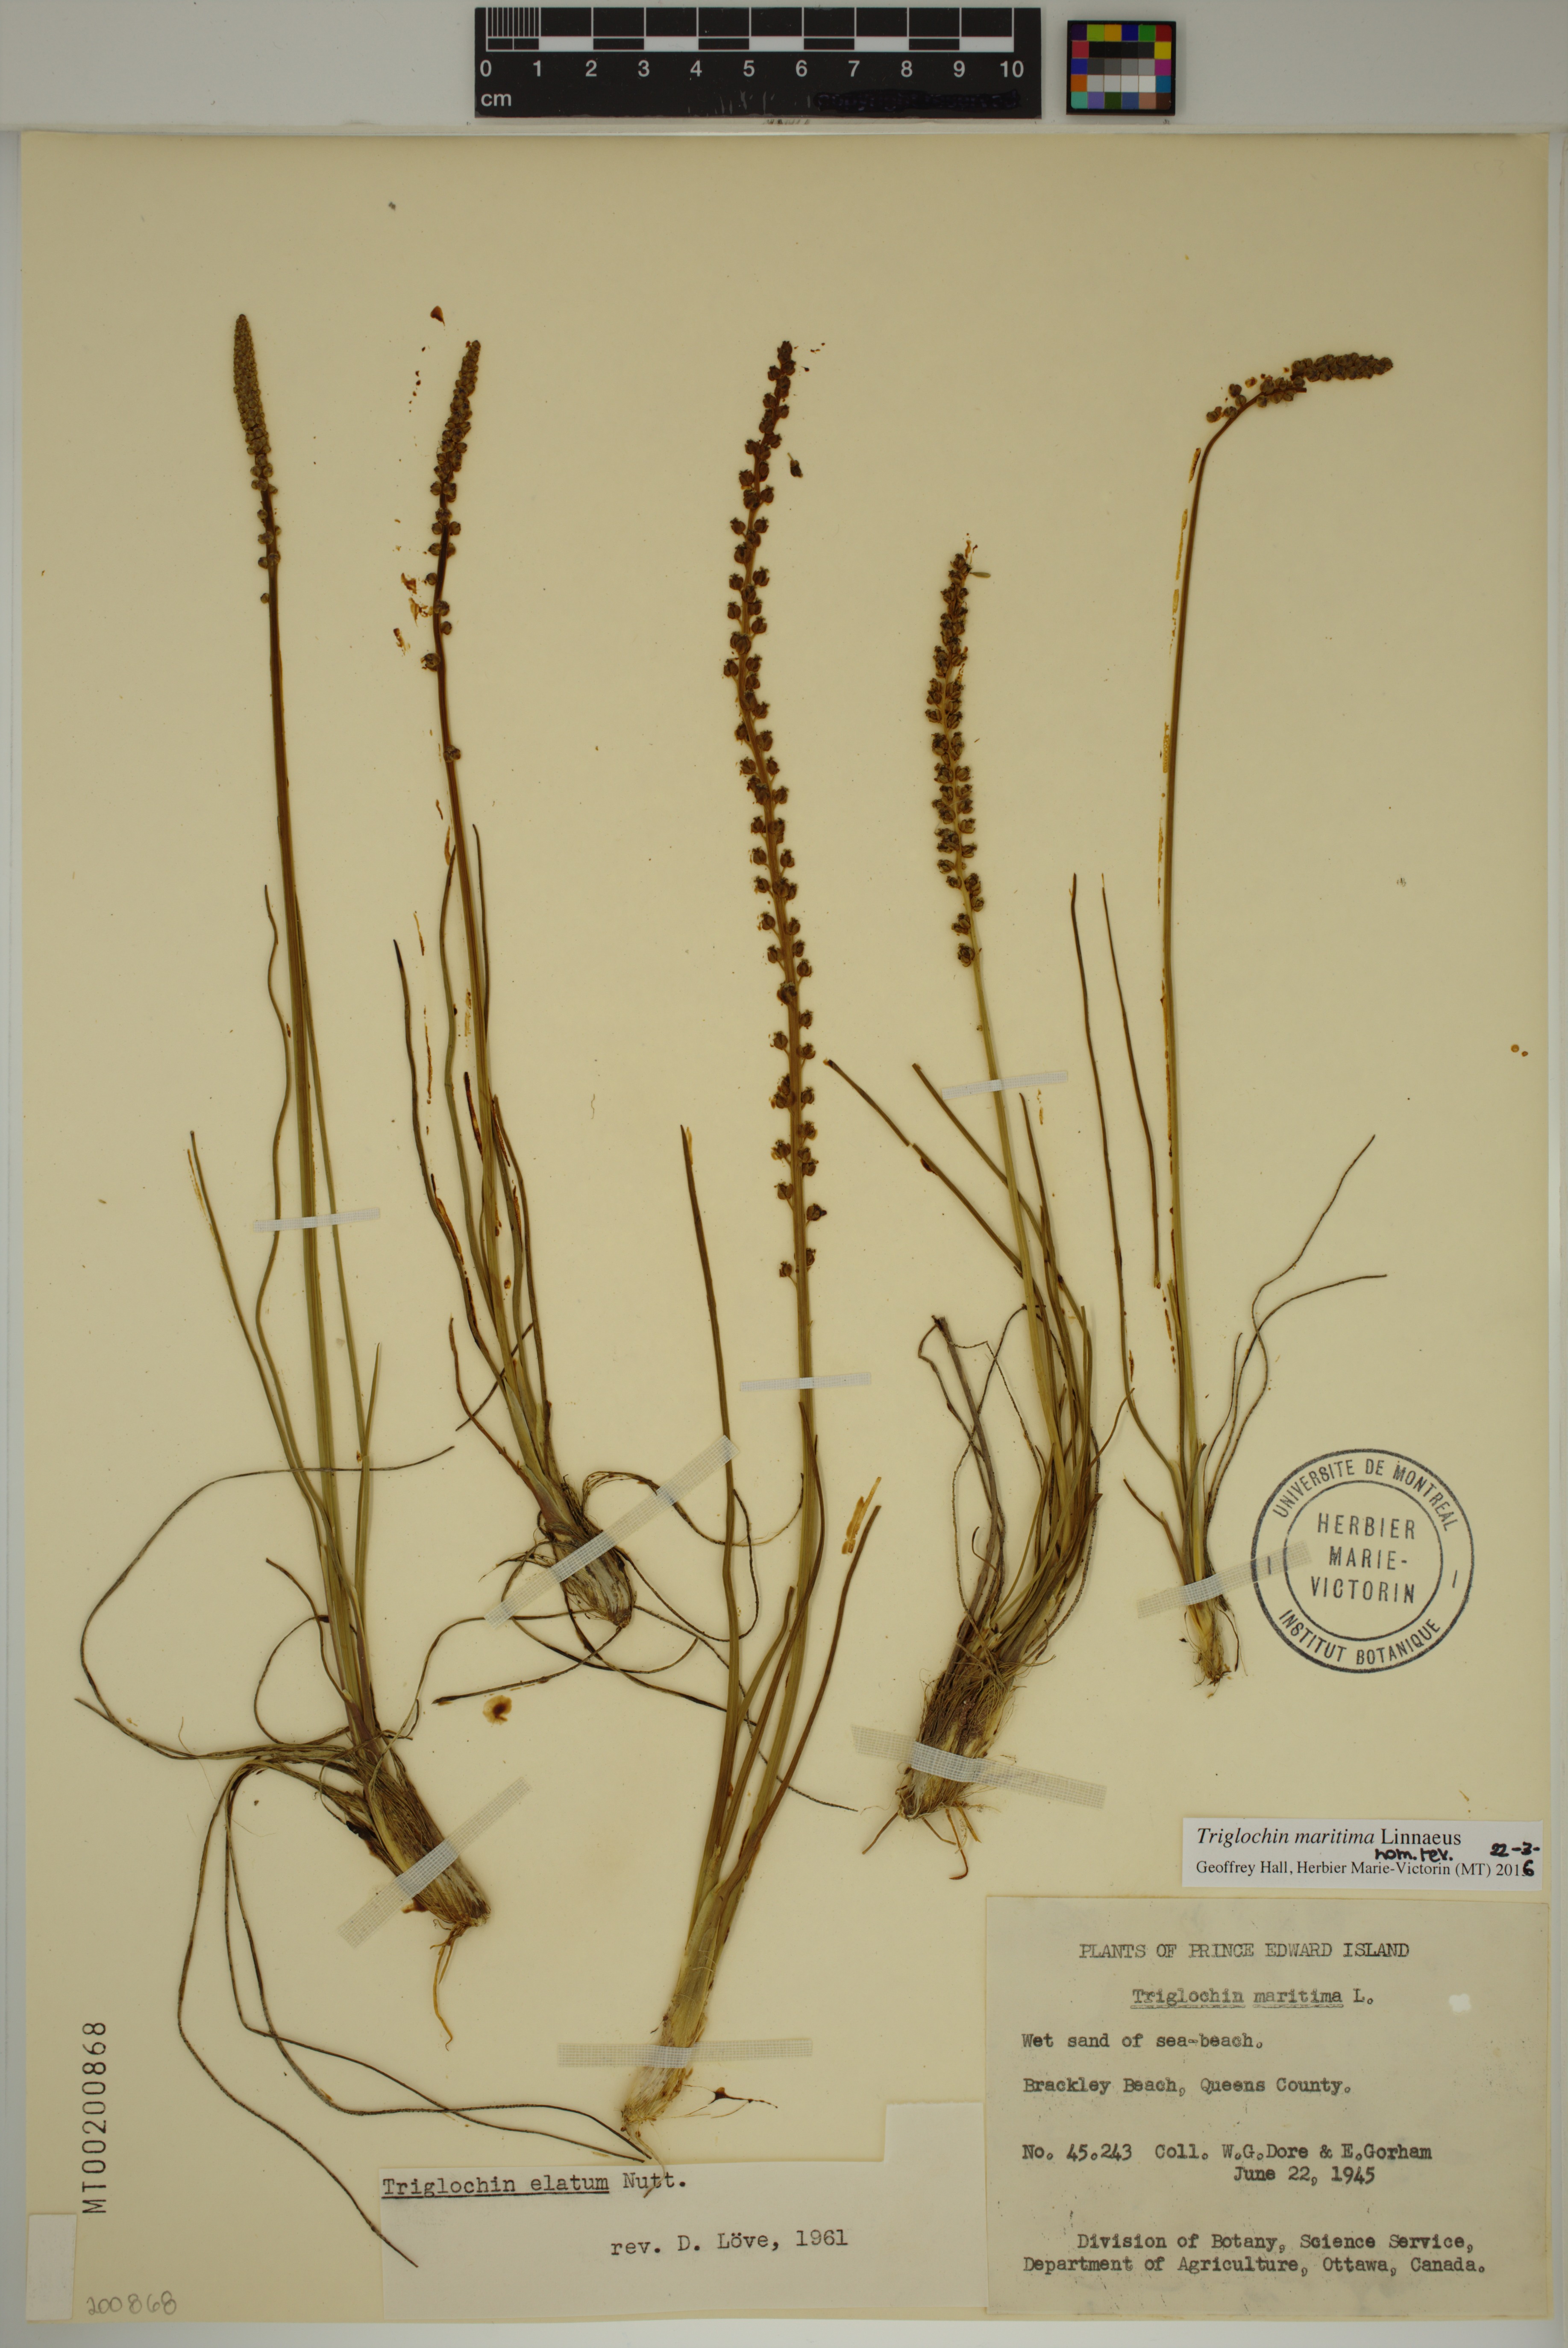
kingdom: Plantae
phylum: Tracheophyta
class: Liliopsida
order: Alismatales
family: Juncaginaceae
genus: Triglochin
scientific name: Triglochin maritima
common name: Sea arrowgrass
